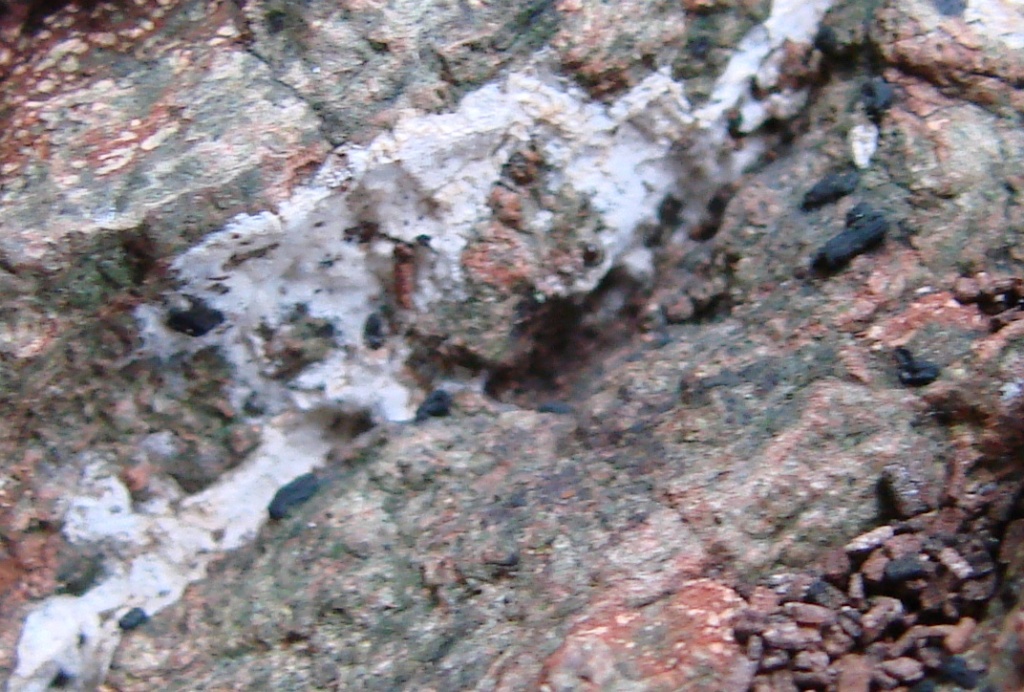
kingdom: Fungi
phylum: Basidiomycota
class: Agaricomycetes
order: Atheliales
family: Atheliaceae
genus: Athelia
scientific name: Athelia fibulata
